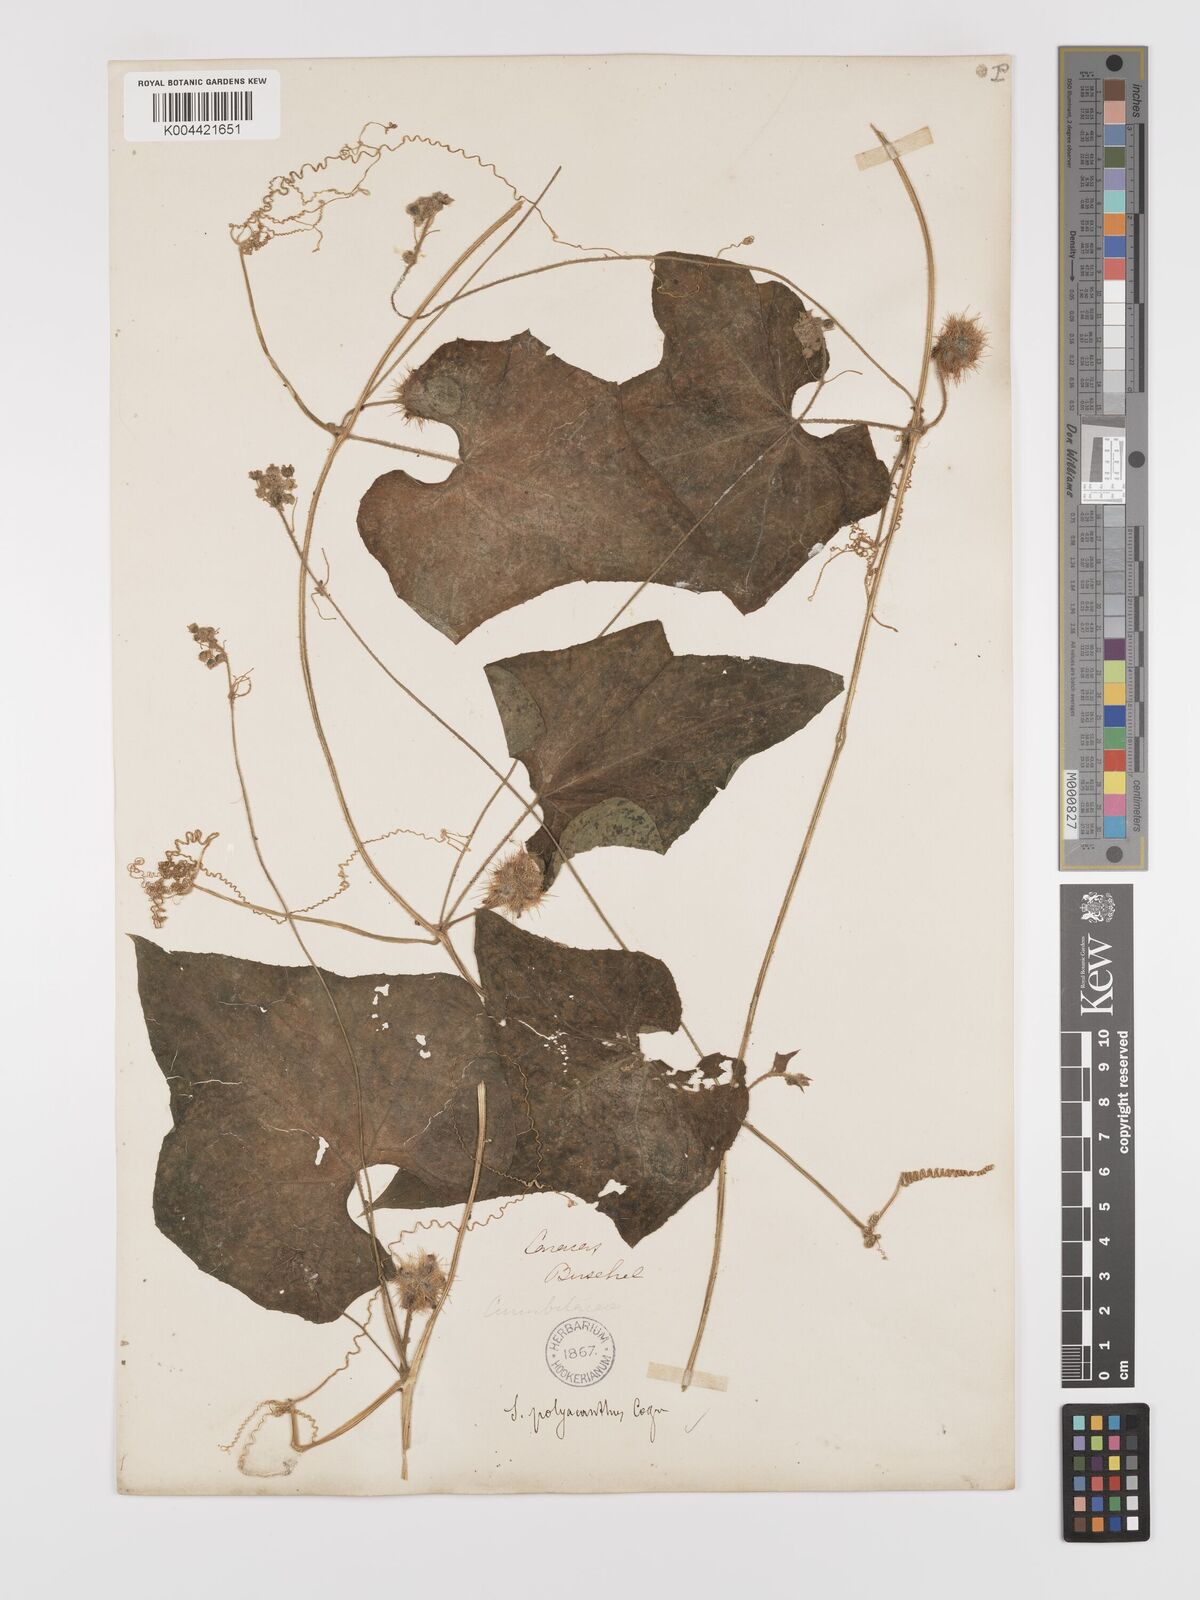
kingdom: Plantae
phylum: Tracheophyta
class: Magnoliopsida
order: Cucurbitales
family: Cucurbitaceae
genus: Sicyos
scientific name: Sicyos bogotensis
